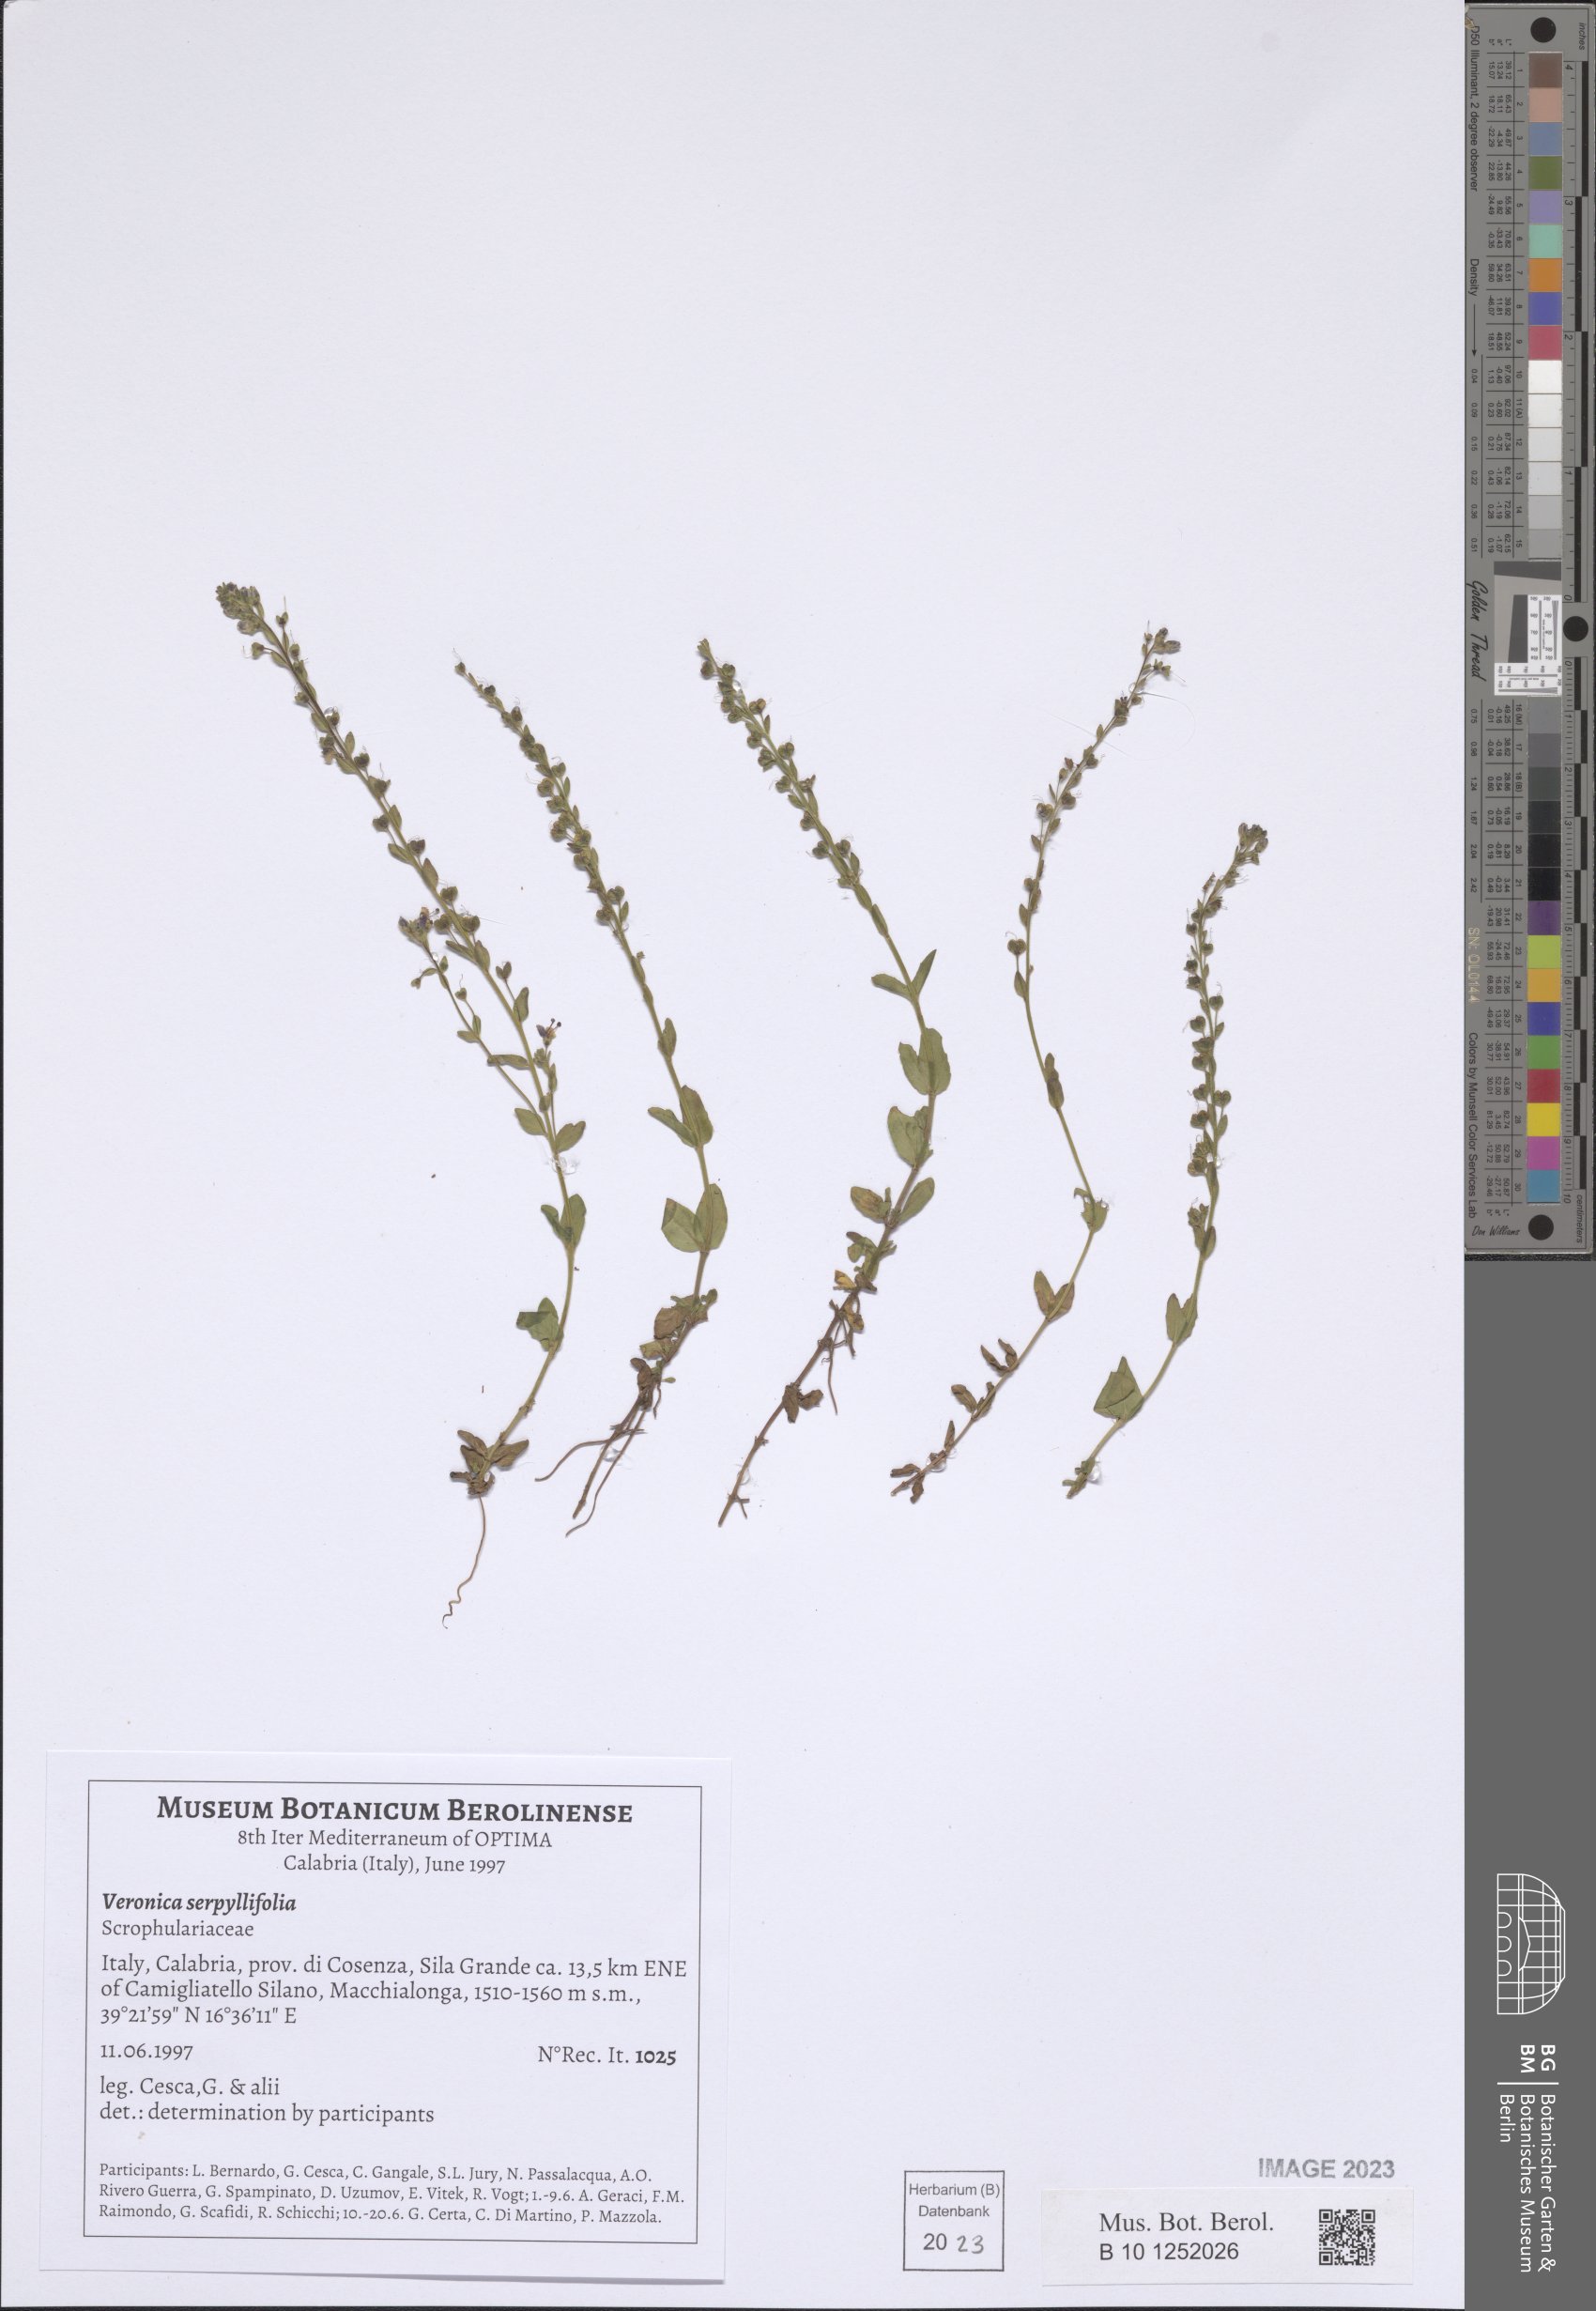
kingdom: Plantae
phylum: Tracheophyta
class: Magnoliopsida
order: Lamiales
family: Plantaginaceae
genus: Veronica
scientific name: Veronica serpyllifolia
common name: Thyme-leaved speedwell
